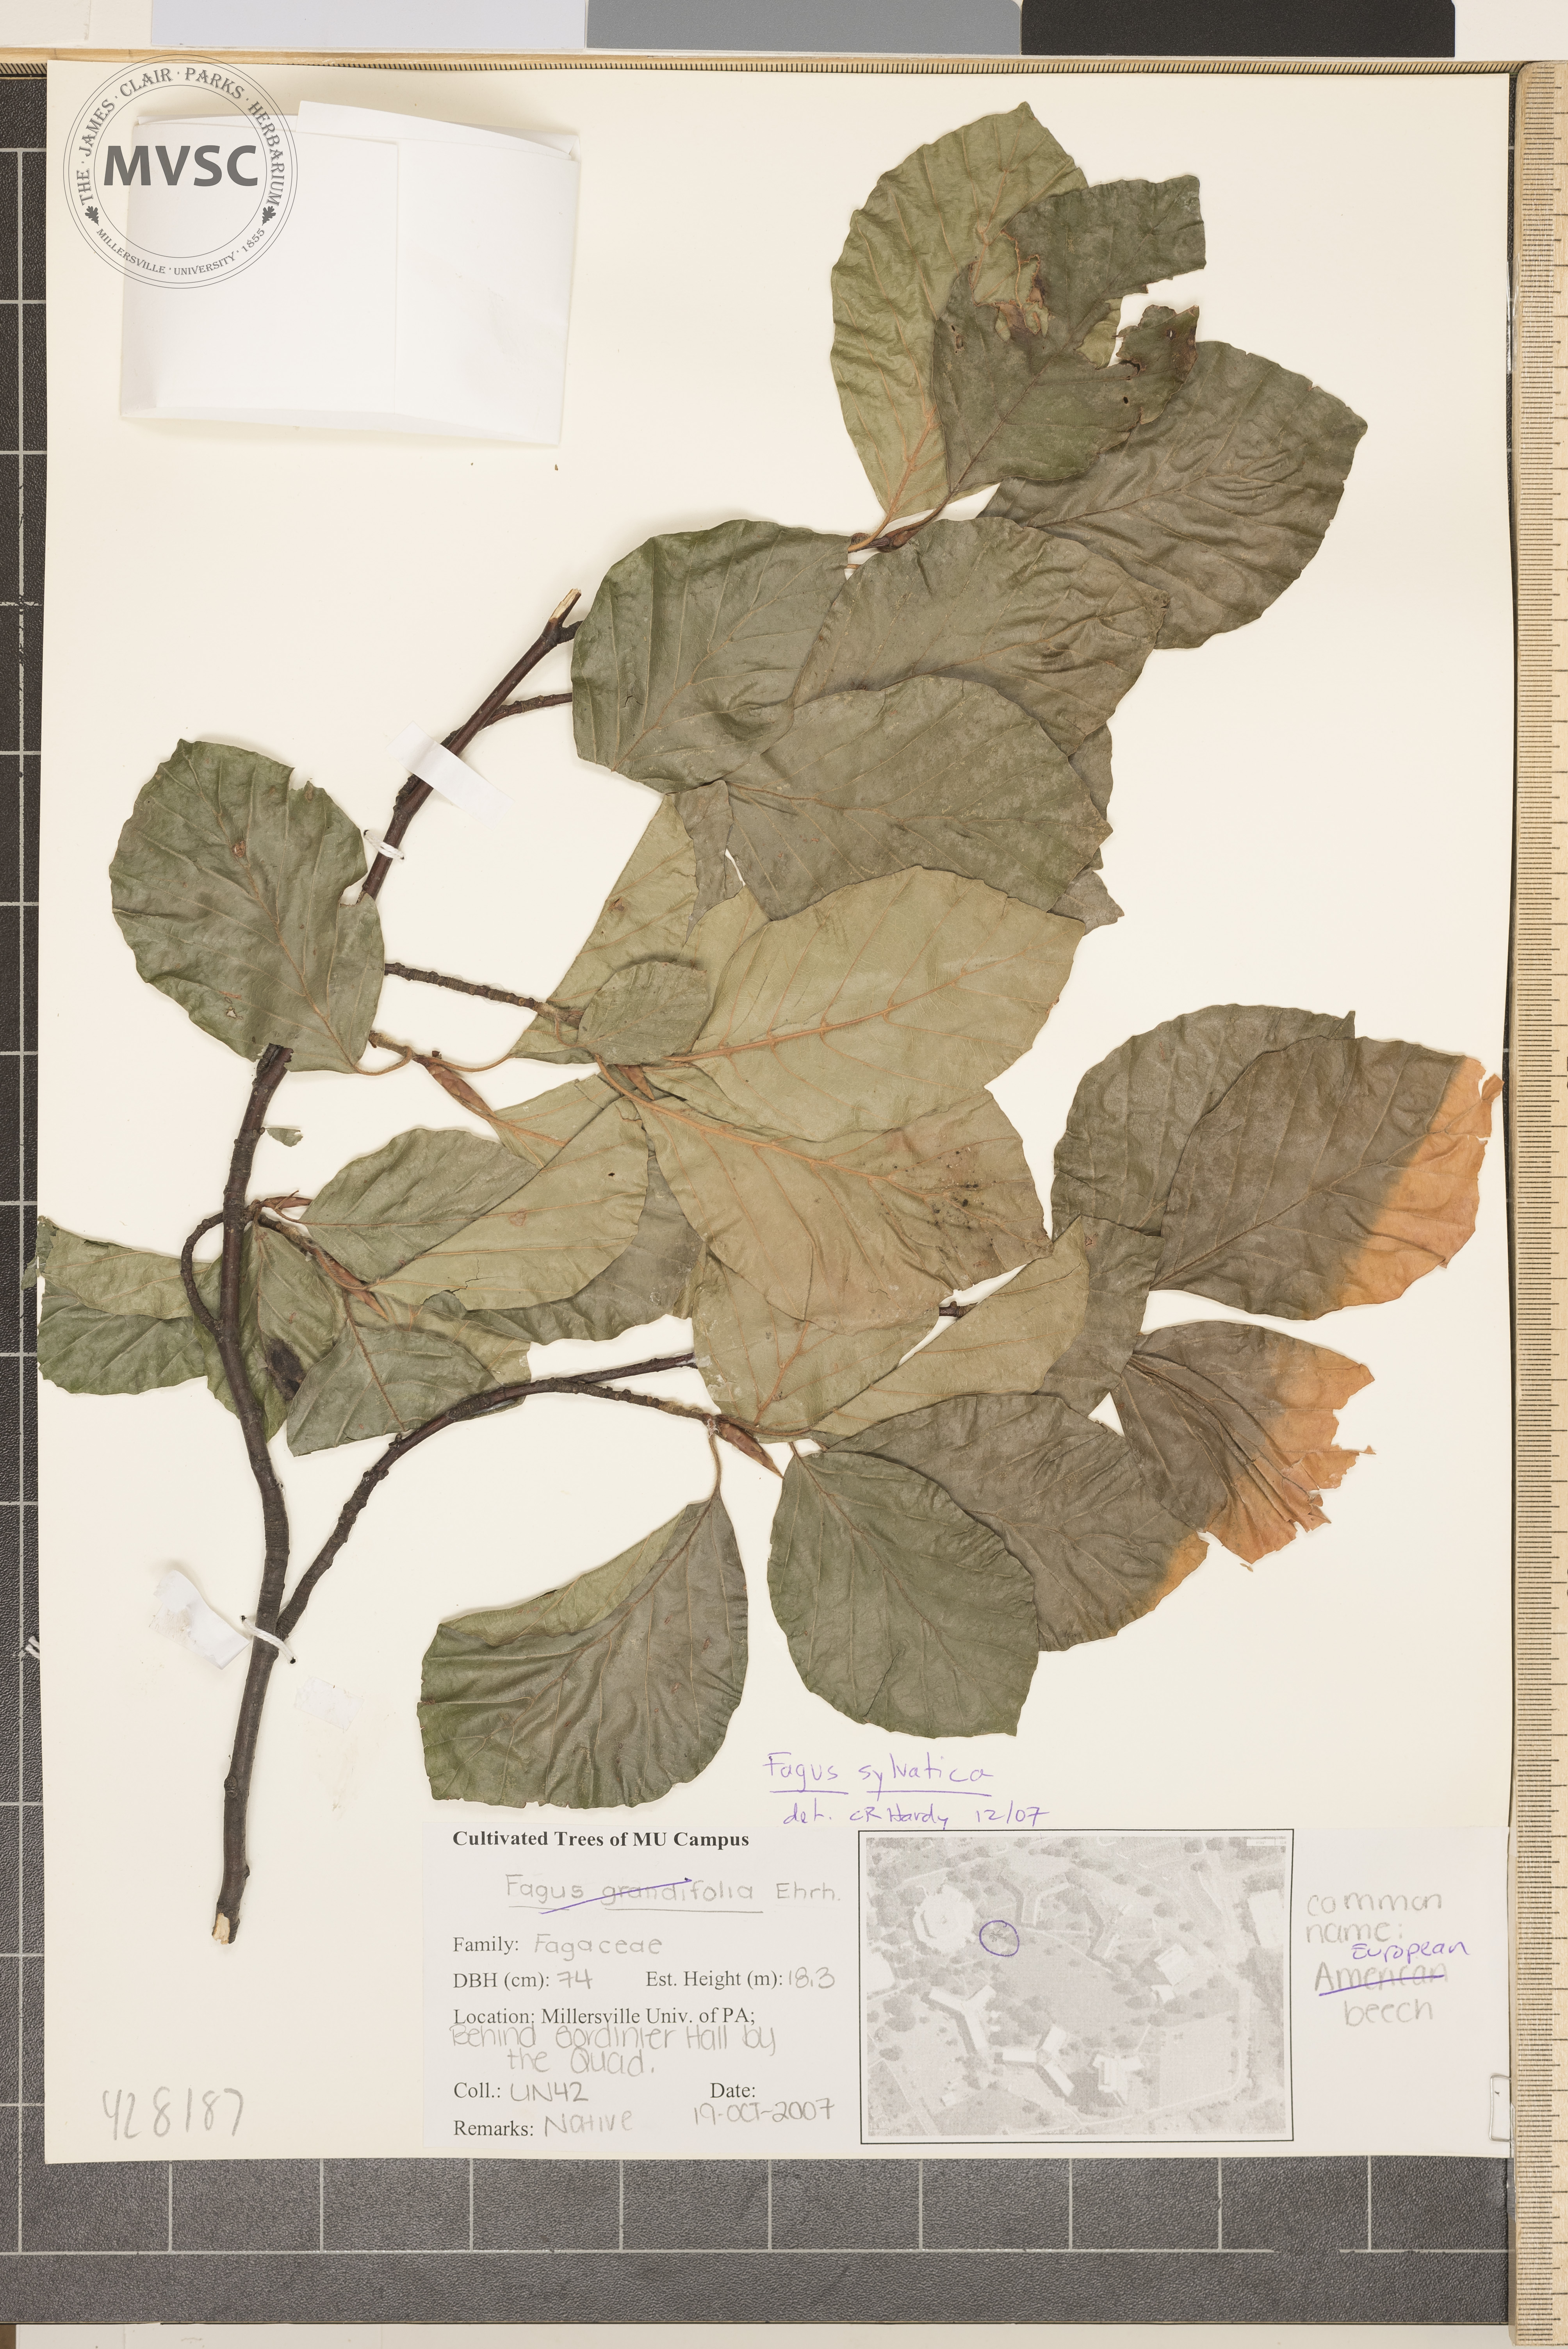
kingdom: Plantae
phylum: Tracheophyta
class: Magnoliopsida
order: Fagales
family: Fagaceae
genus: Fagus
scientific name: Fagus sylvatica
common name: Beech
